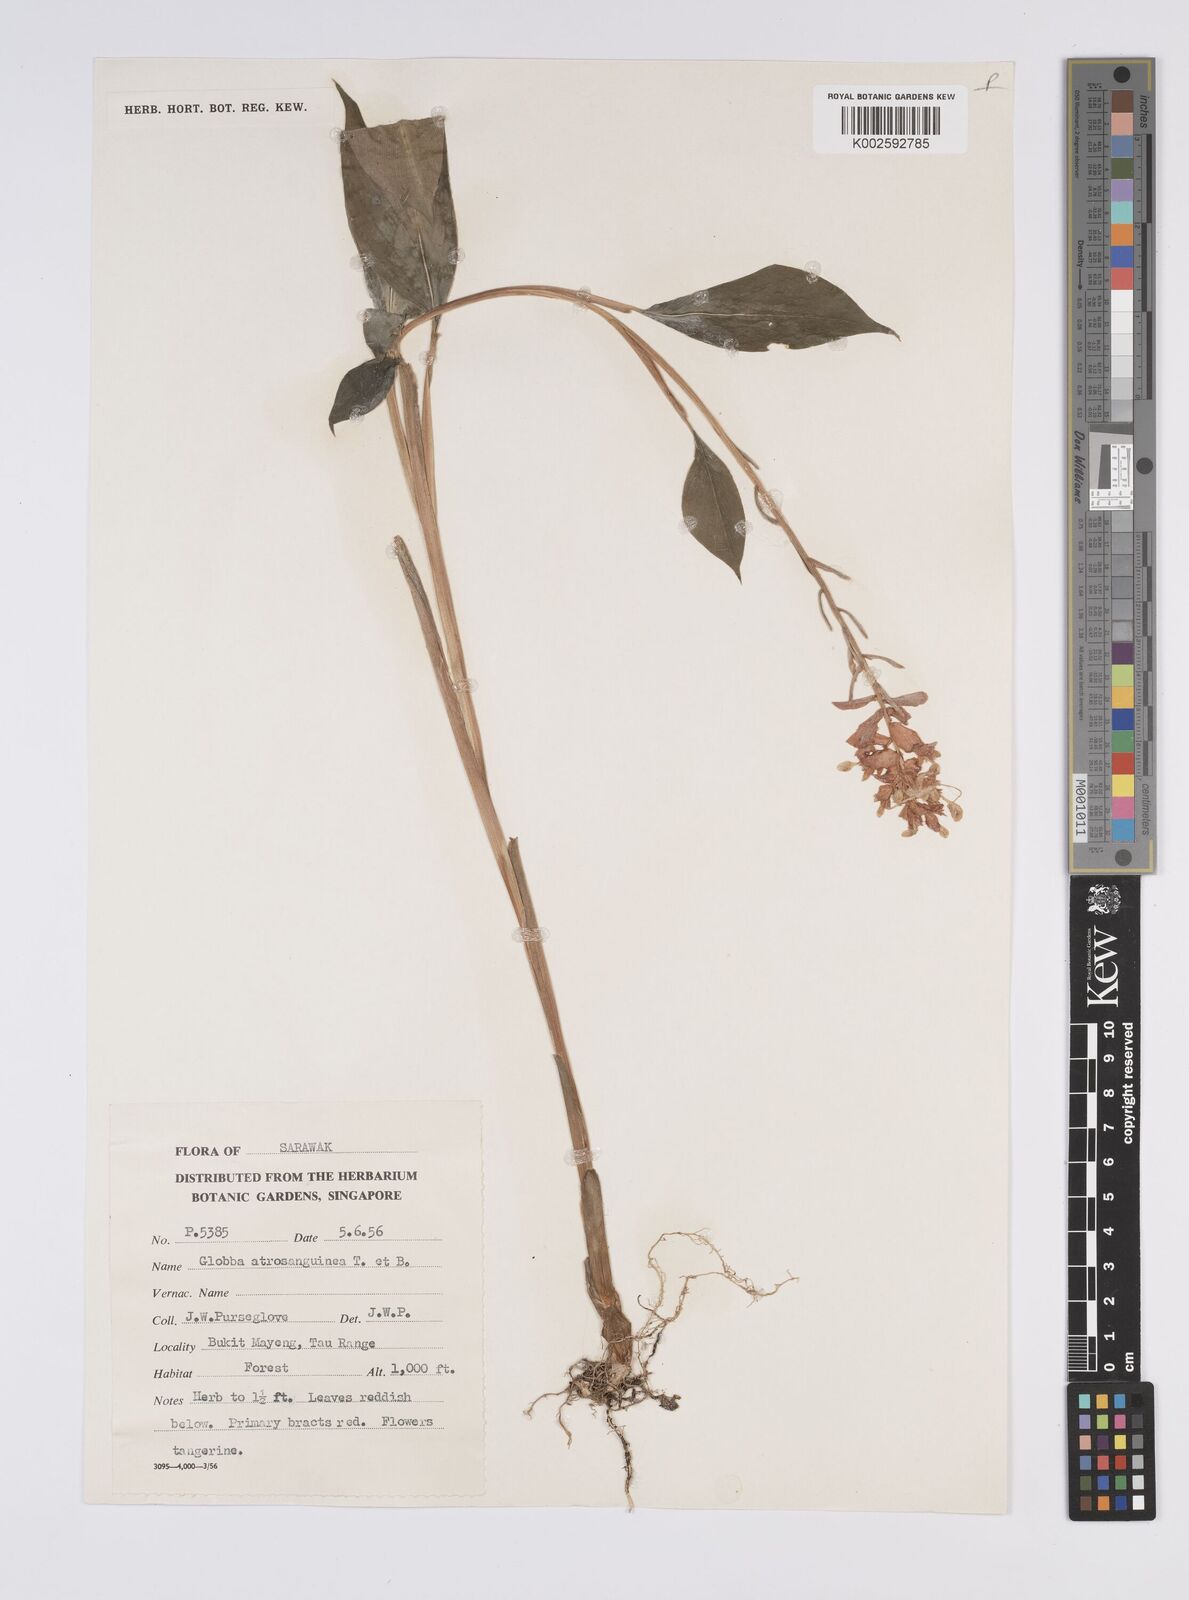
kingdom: Plantae
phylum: Tracheophyta
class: Liliopsida
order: Zingiberales
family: Zingiberaceae
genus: Globba
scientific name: Globba atrosanguinea
